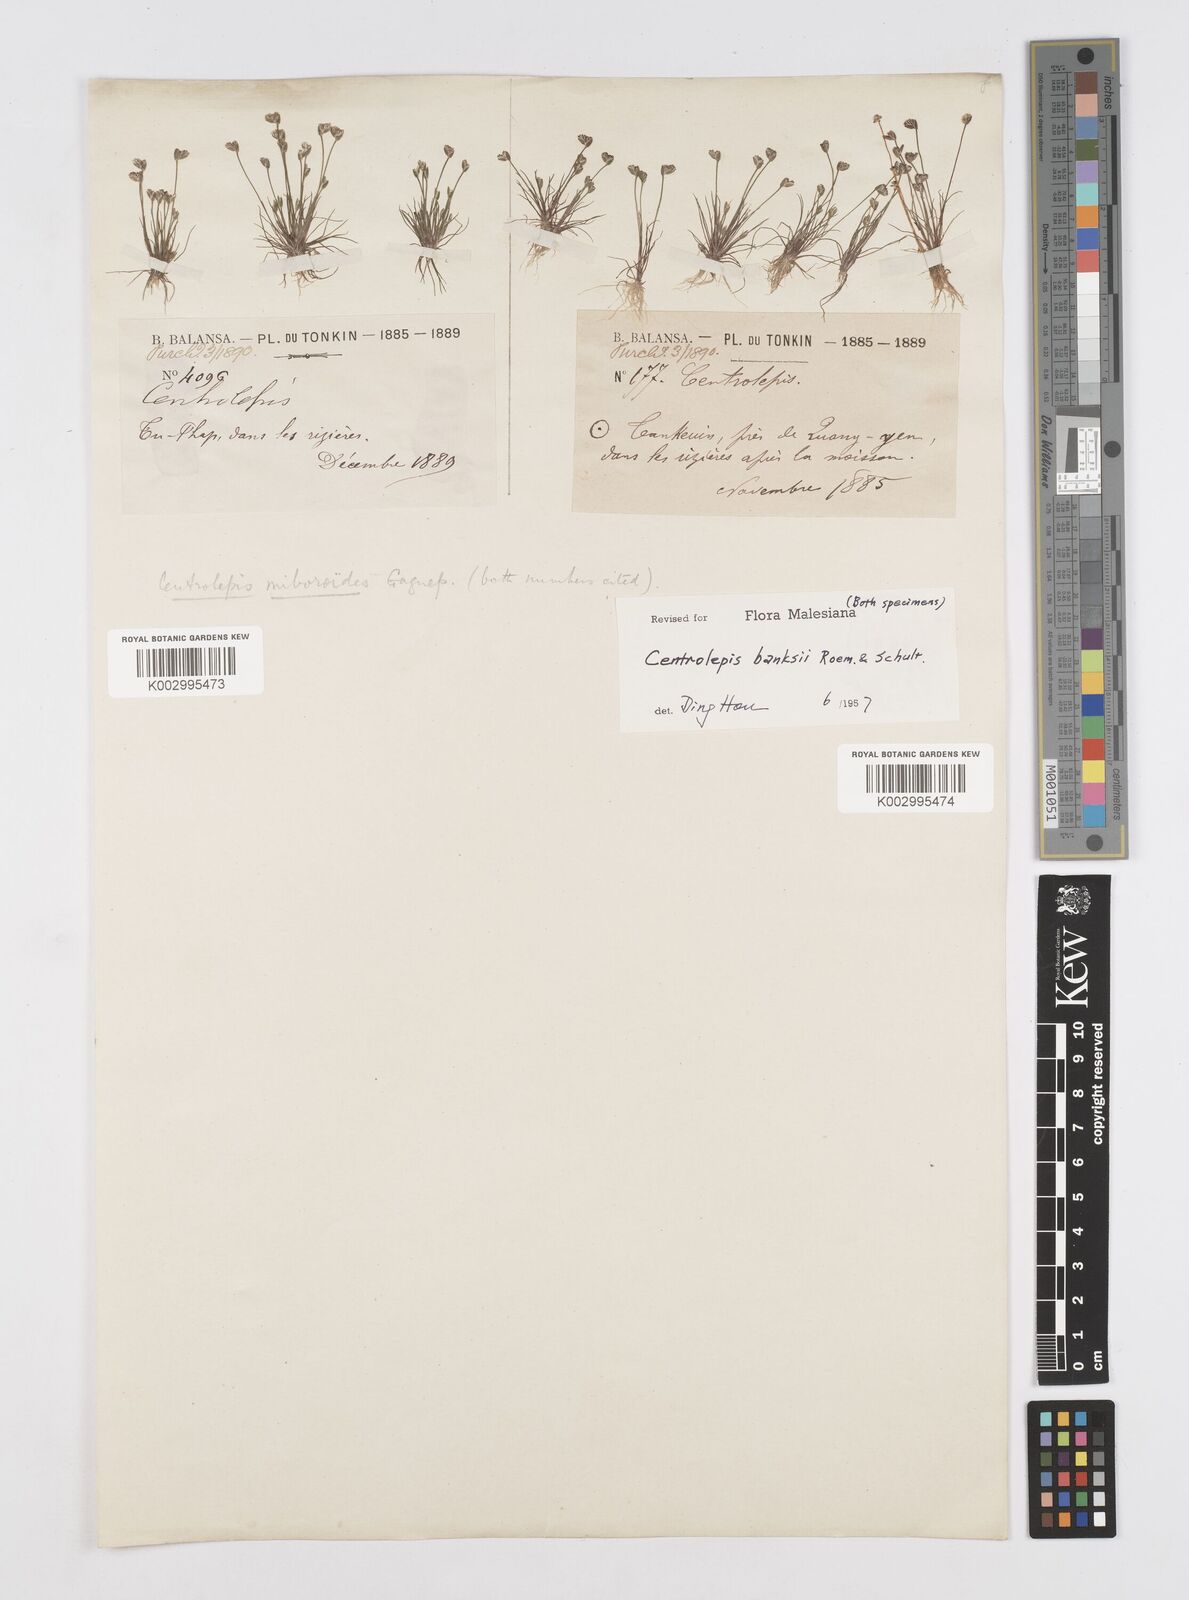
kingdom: Plantae
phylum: Tracheophyta
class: Liliopsida
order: Poales
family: Restionaceae
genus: Centrolepis
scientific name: Centrolepis banksii
